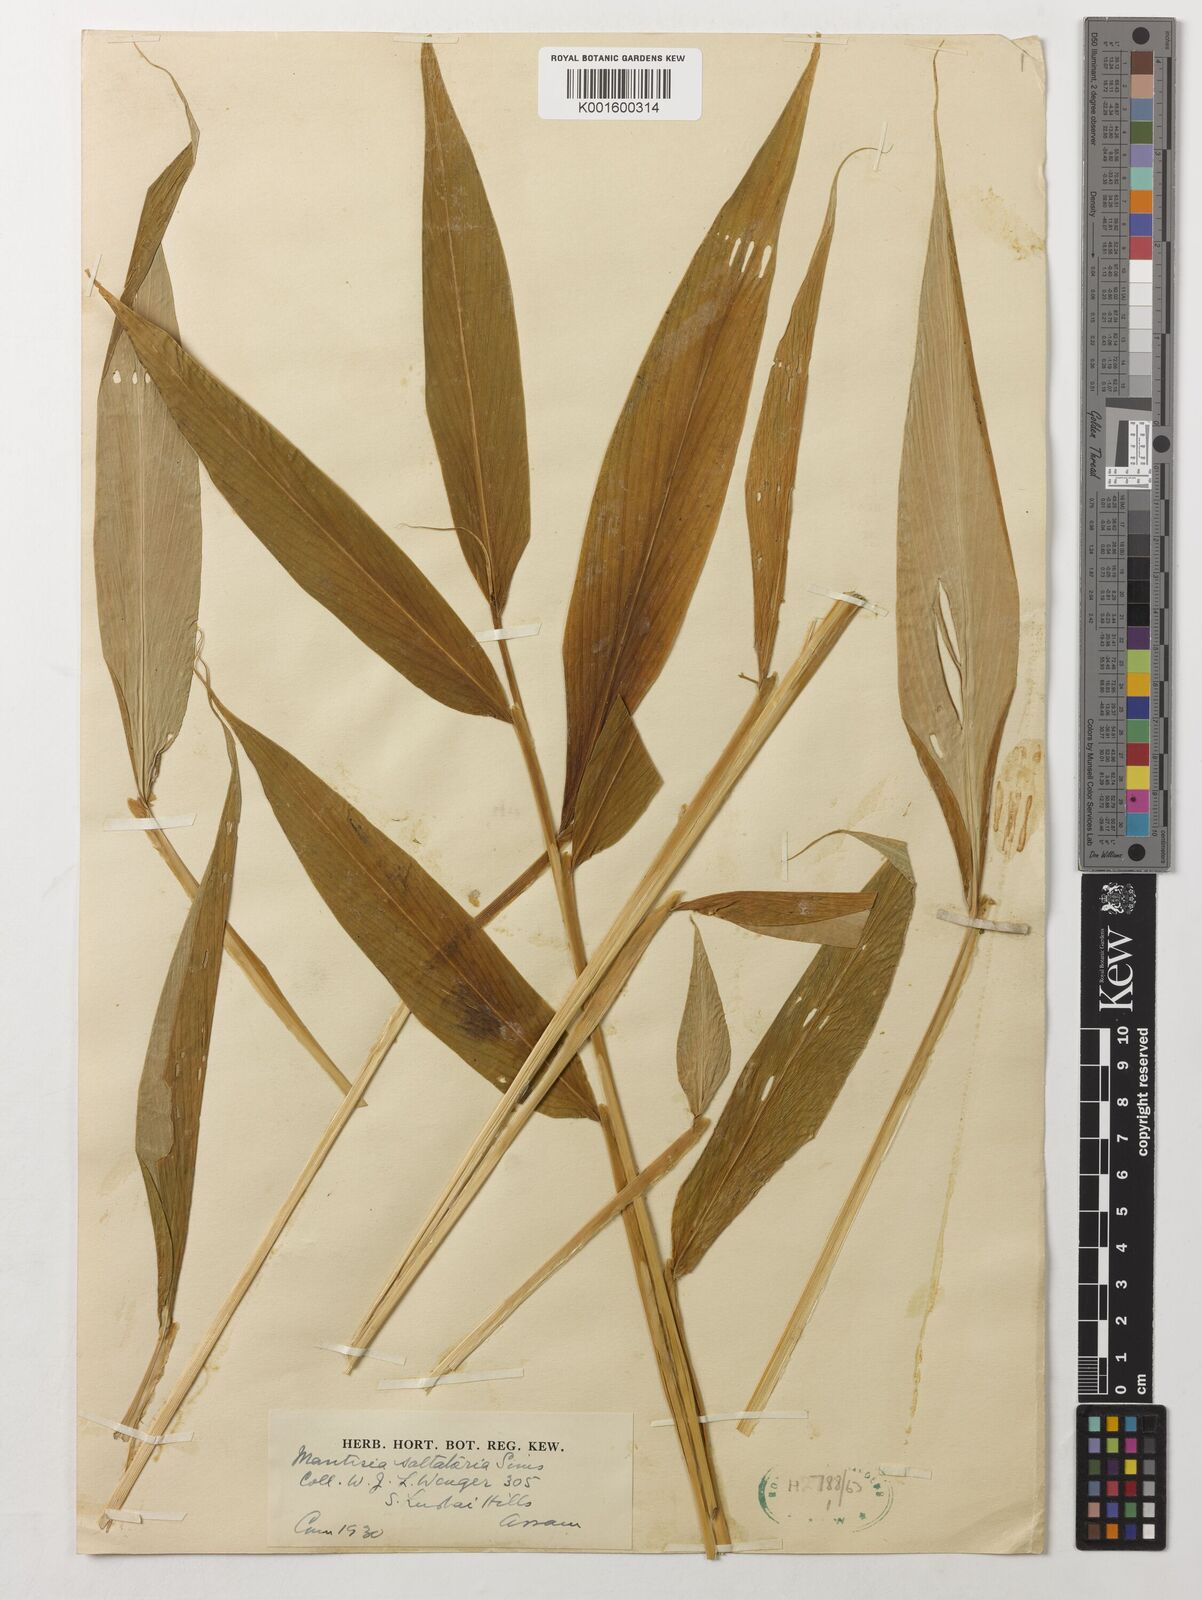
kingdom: Plantae
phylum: Tracheophyta
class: Liliopsida
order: Zingiberales
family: Zingiberaceae
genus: Globba
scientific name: Globba radicalis
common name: Dancing girl
